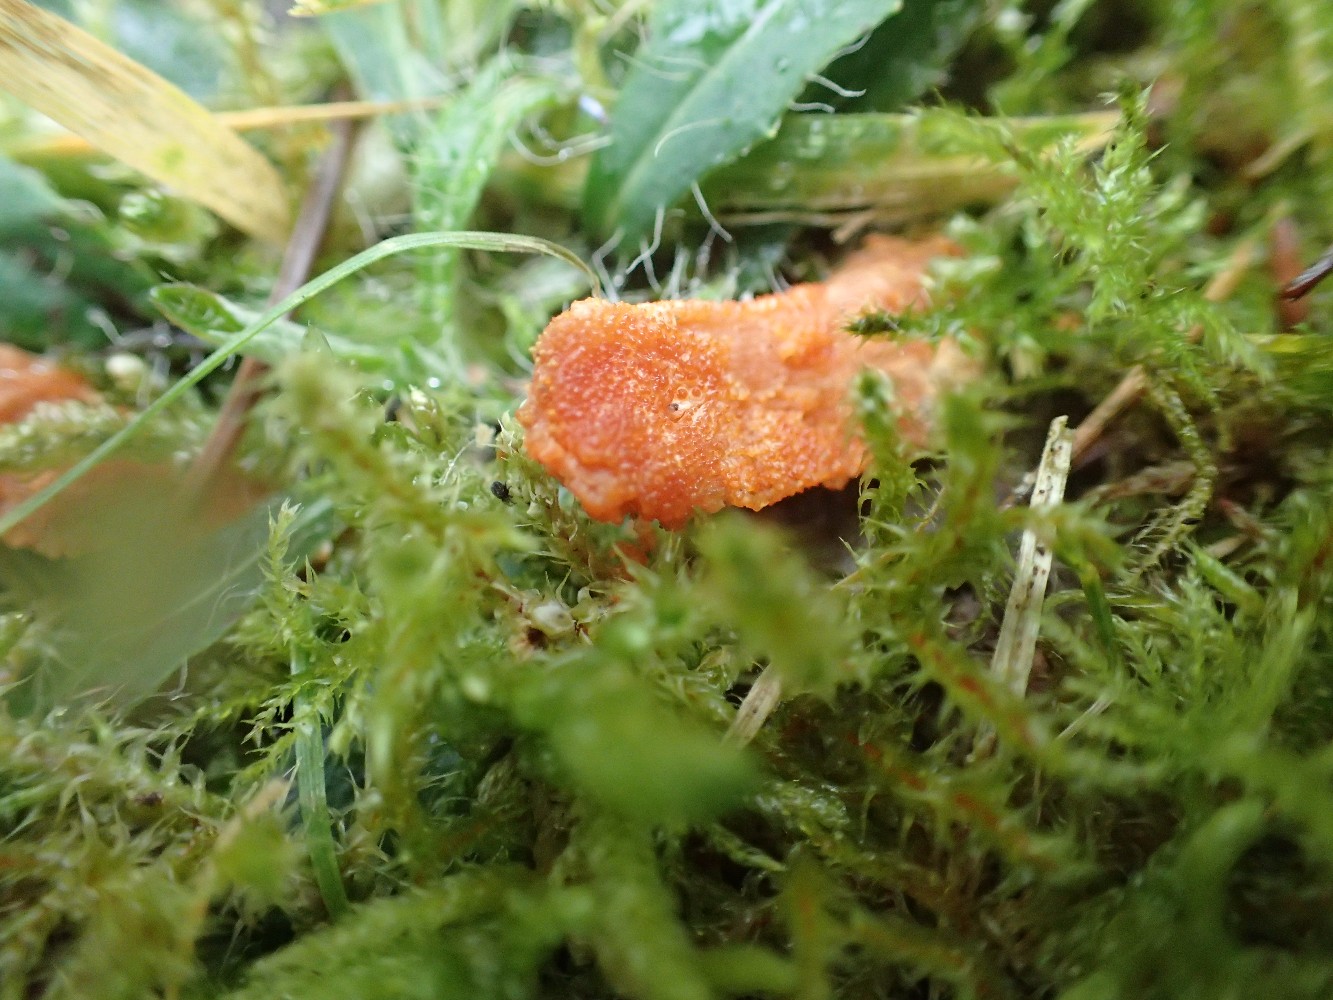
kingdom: Fungi
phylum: Ascomycota
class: Sordariomycetes
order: Hypocreales
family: Cordycipitaceae
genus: Cordyceps
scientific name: Cordyceps militaris
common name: puppe-snyltekølle
